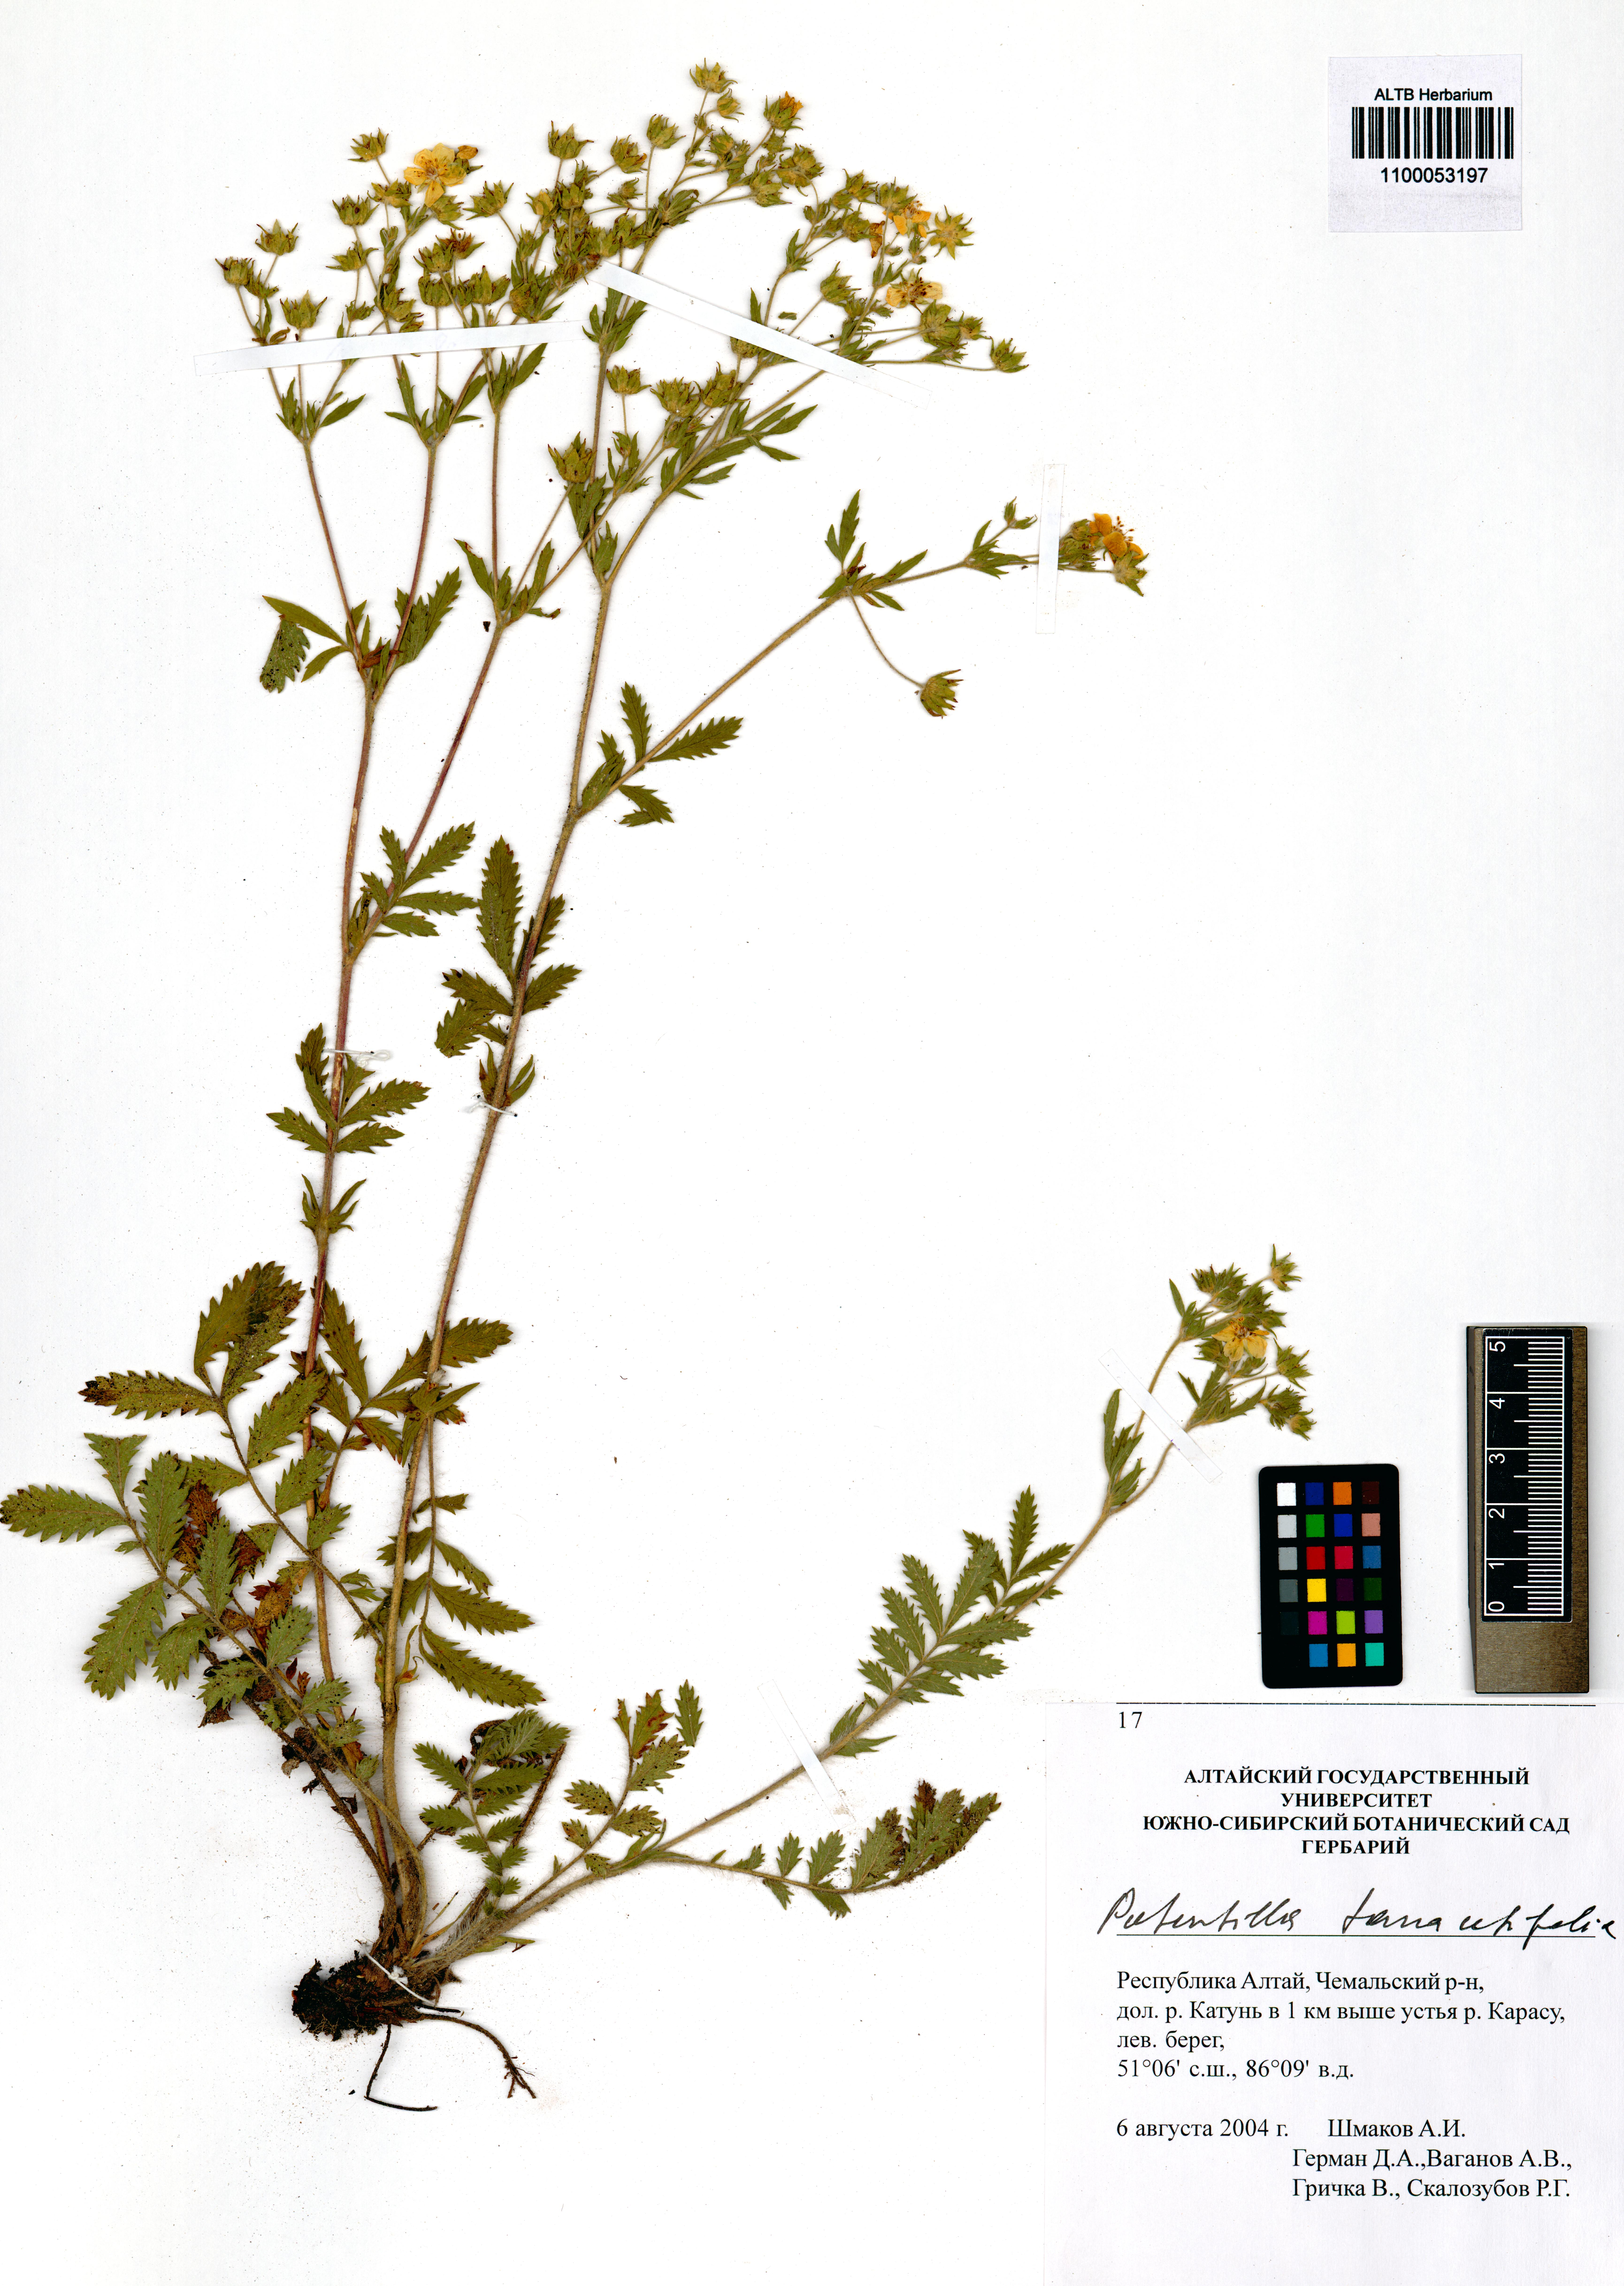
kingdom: Plantae
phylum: Tracheophyta
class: Magnoliopsida
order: Rosales
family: Rosaceae
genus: Potentilla
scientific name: Potentilla tanacetifolia
